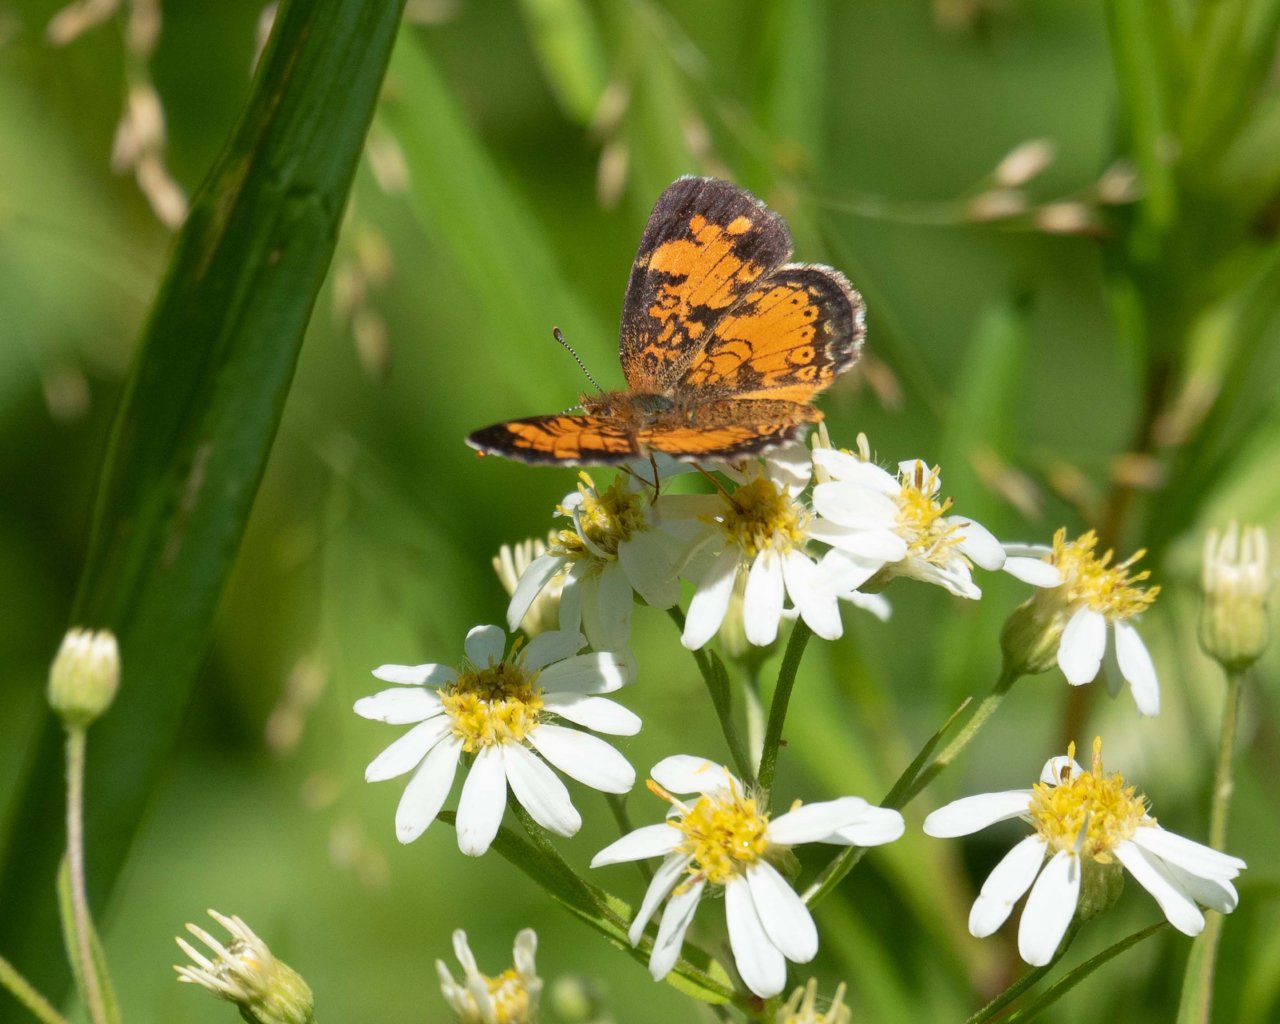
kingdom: Animalia
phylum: Arthropoda
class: Insecta
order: Lepidoptera
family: Nymphalidae
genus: Phyciodes
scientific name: Phyciodes
